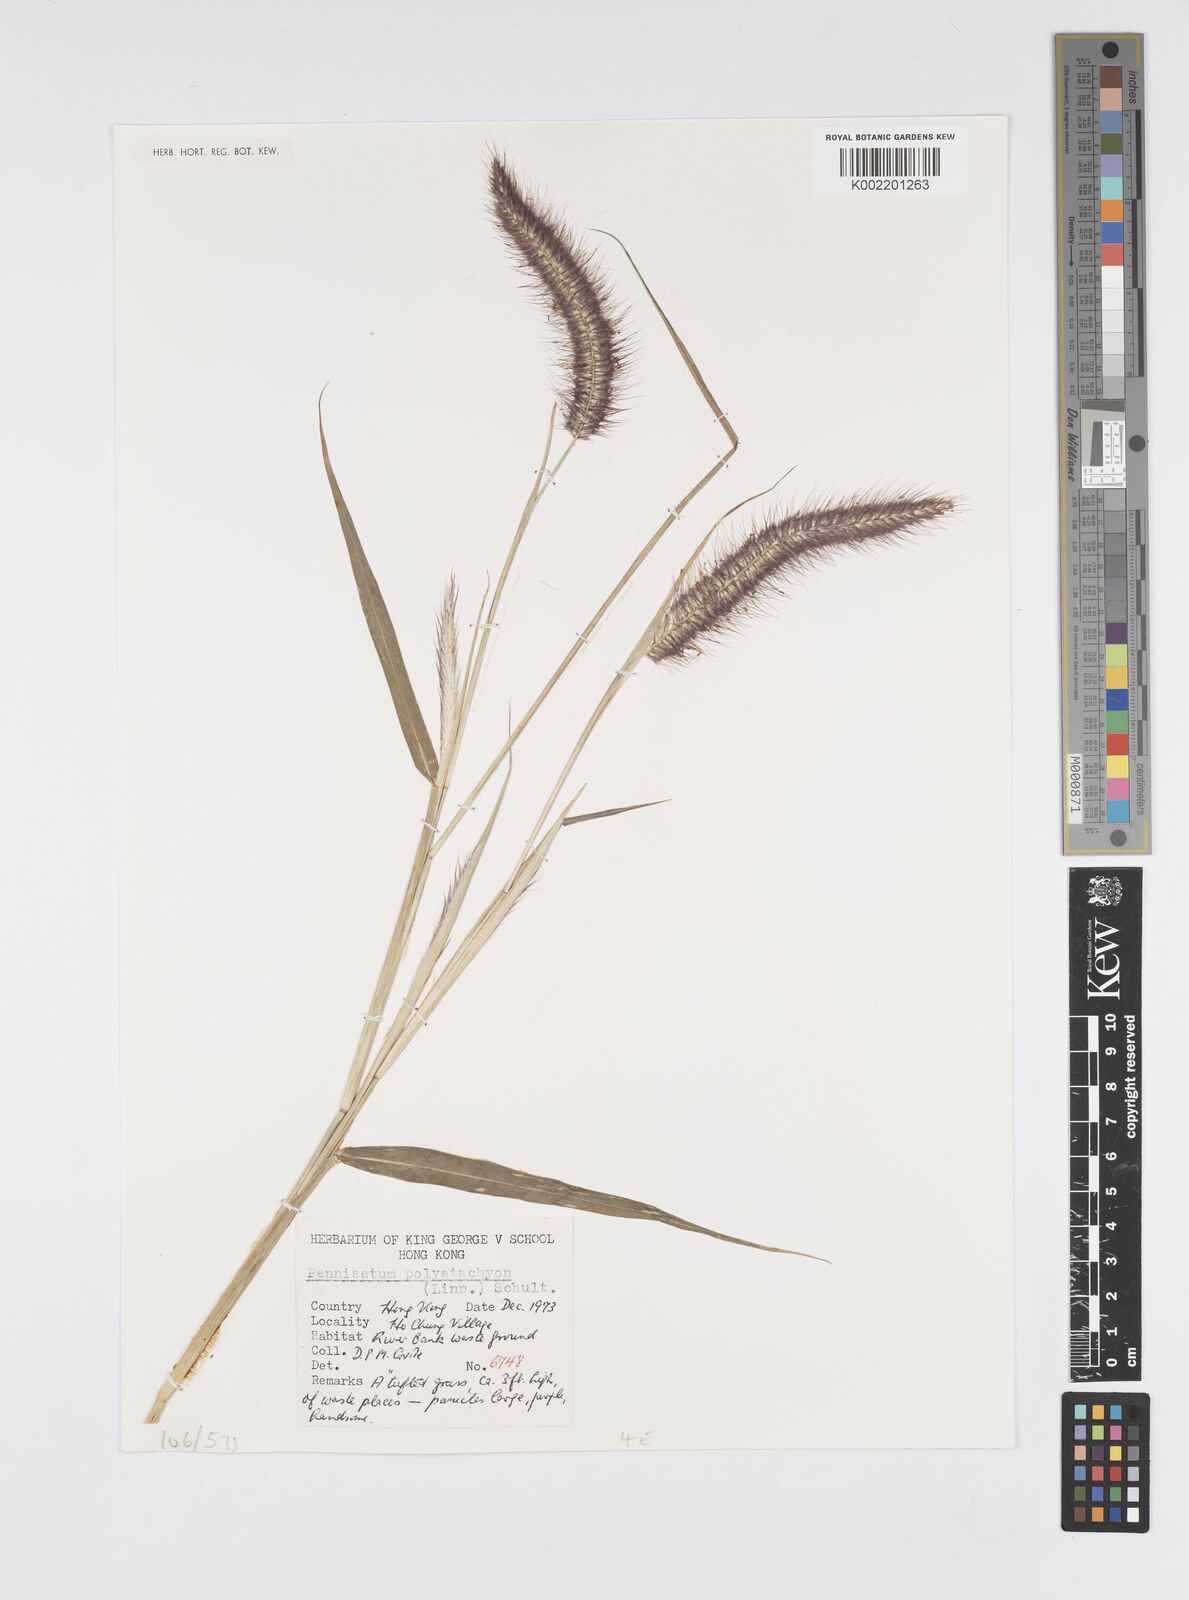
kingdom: Plantae
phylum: Tracheophyta
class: Liliopsida
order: Poales
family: Poaceae
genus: Setaria
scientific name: Setaria parviflora
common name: Knotroot bristle-grass
